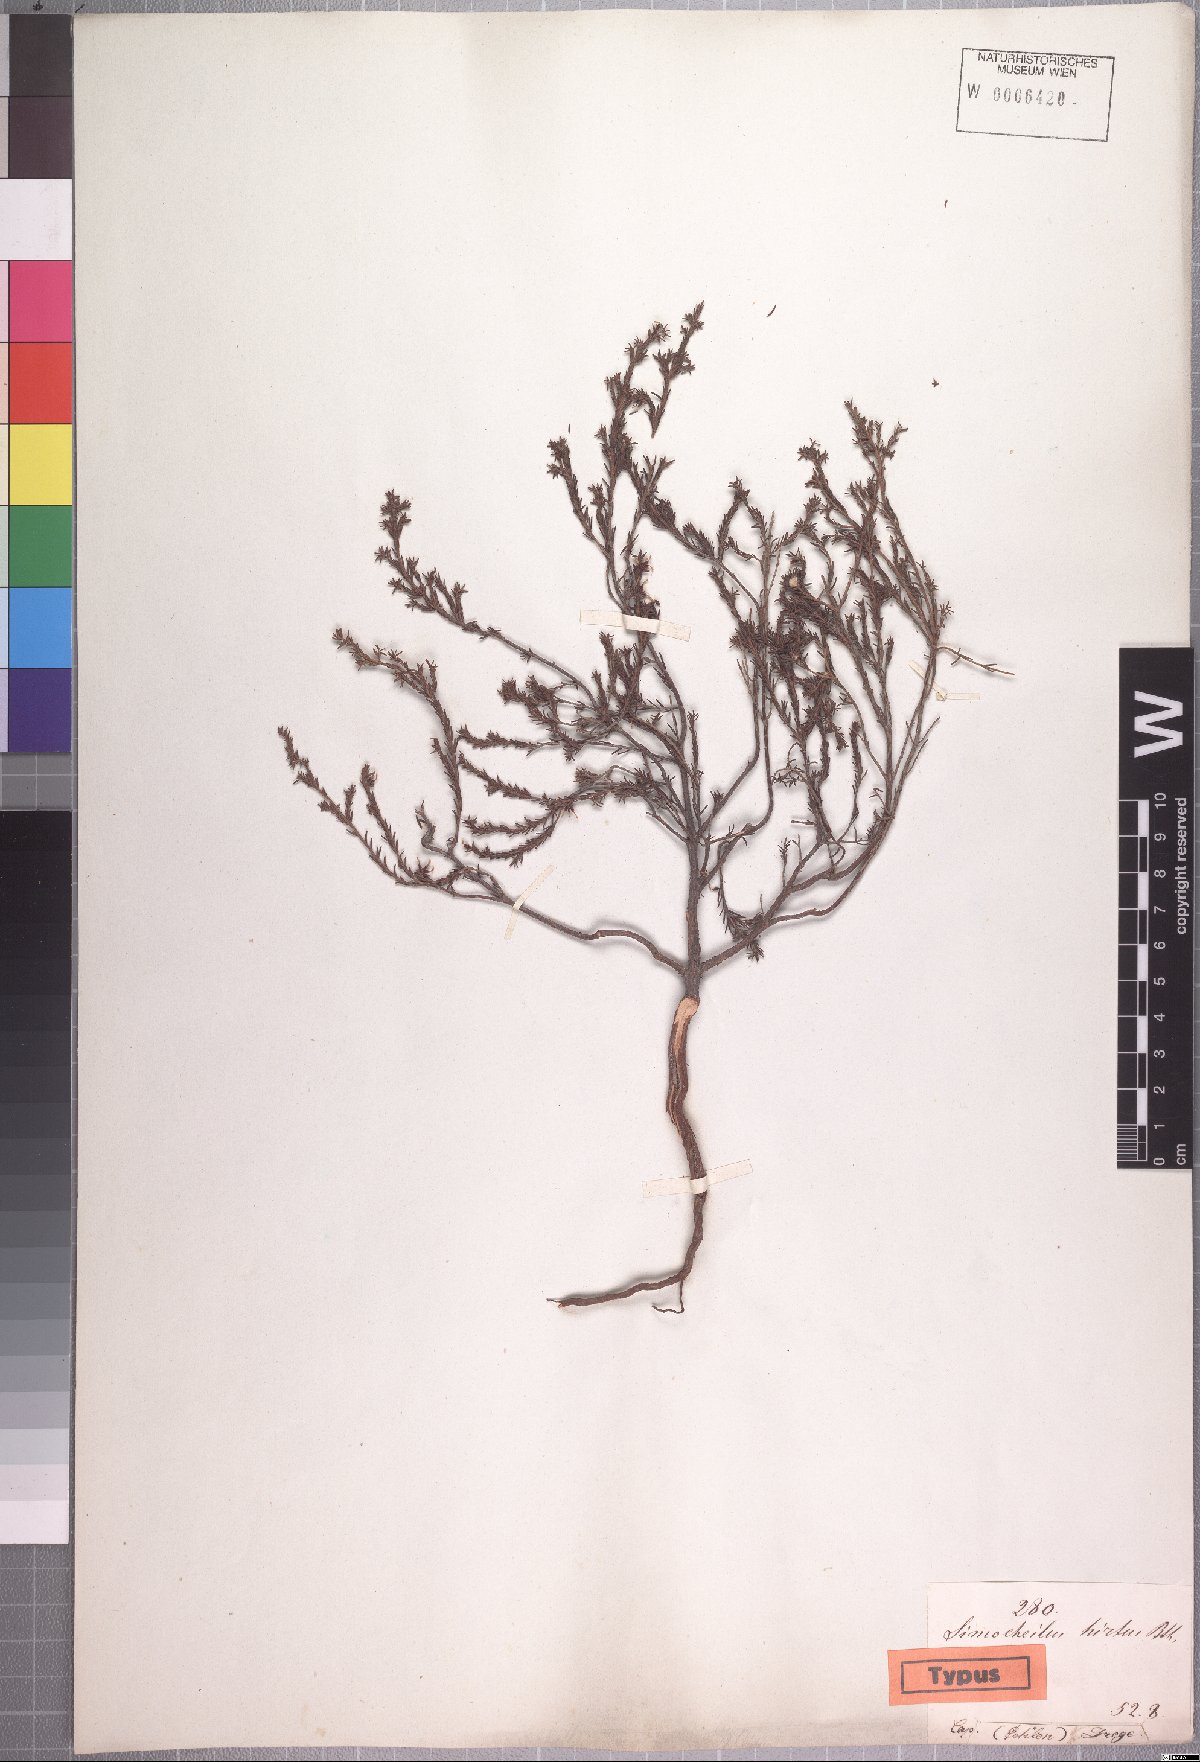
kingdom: Plantae
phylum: Tracheophyta
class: Magnoliopsida
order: Ericales
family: Ericaceae
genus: Erica
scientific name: Erica glabella
